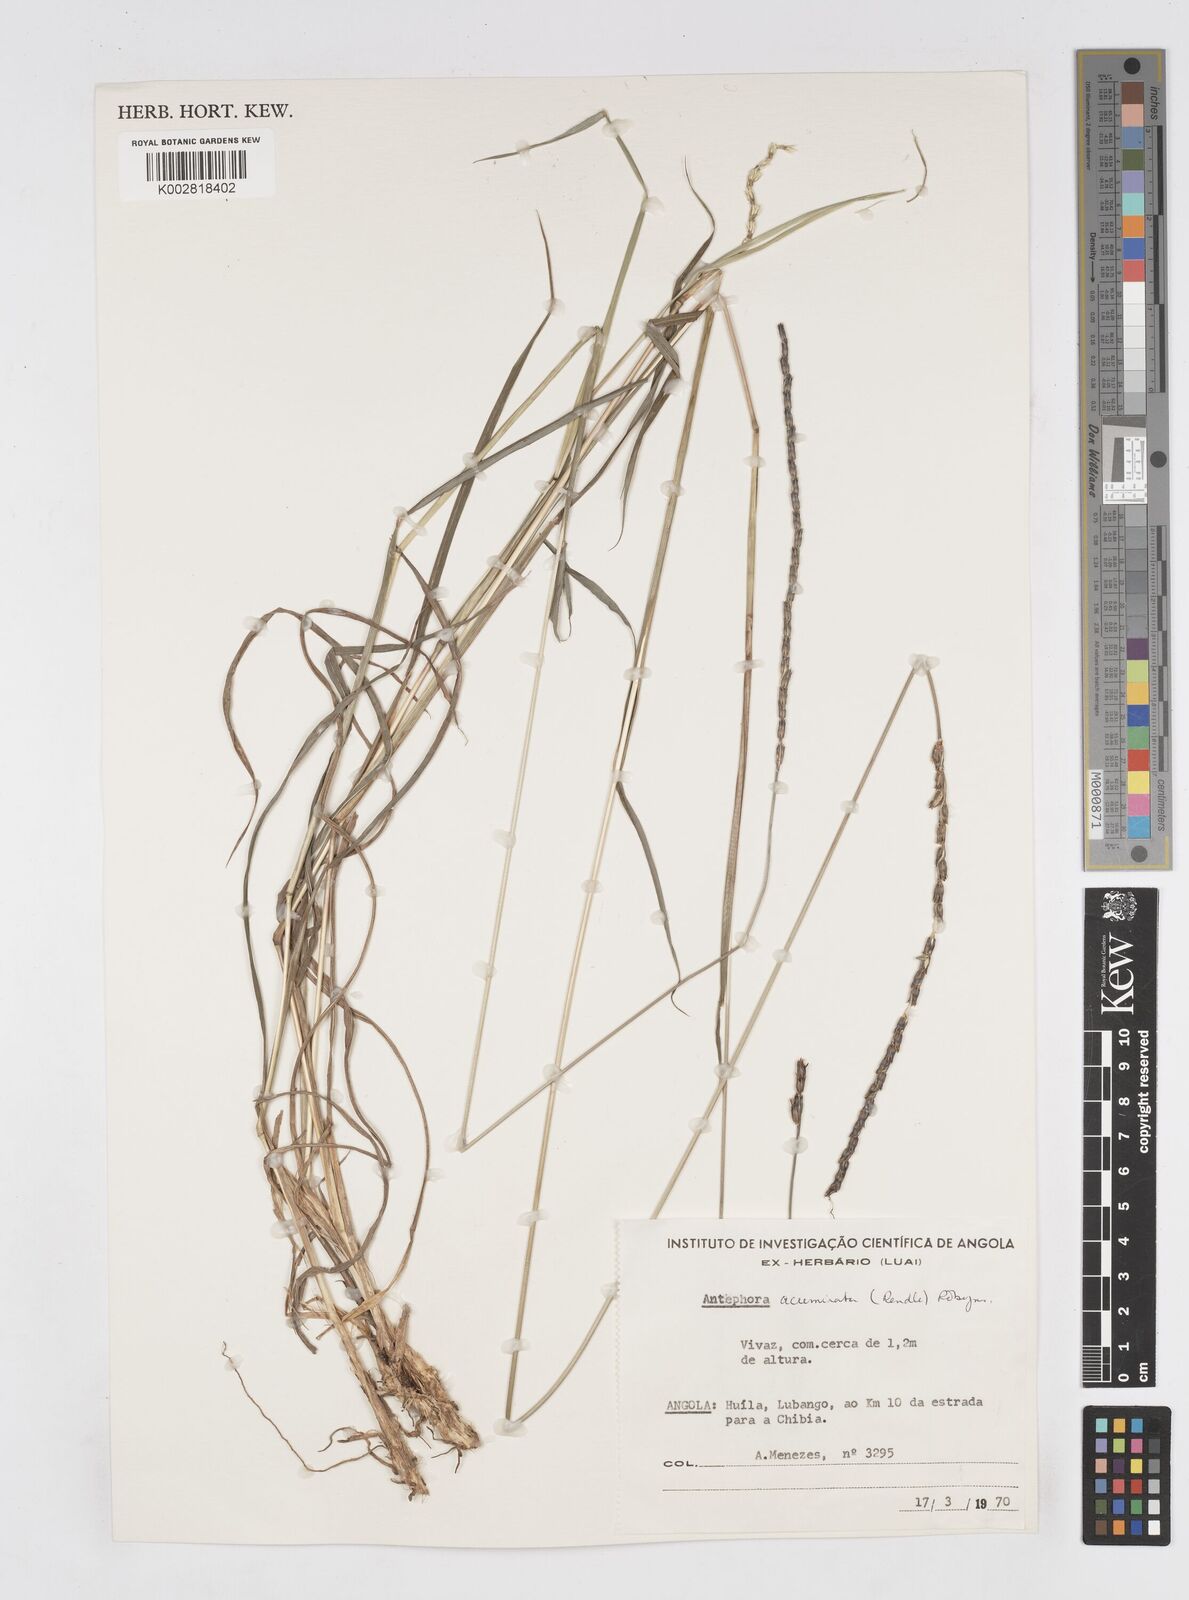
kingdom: Plantae
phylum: Tracheophyta
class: Liliopsida
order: Poales
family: Poaceae
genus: Anthephora
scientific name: Anthephora elongata
